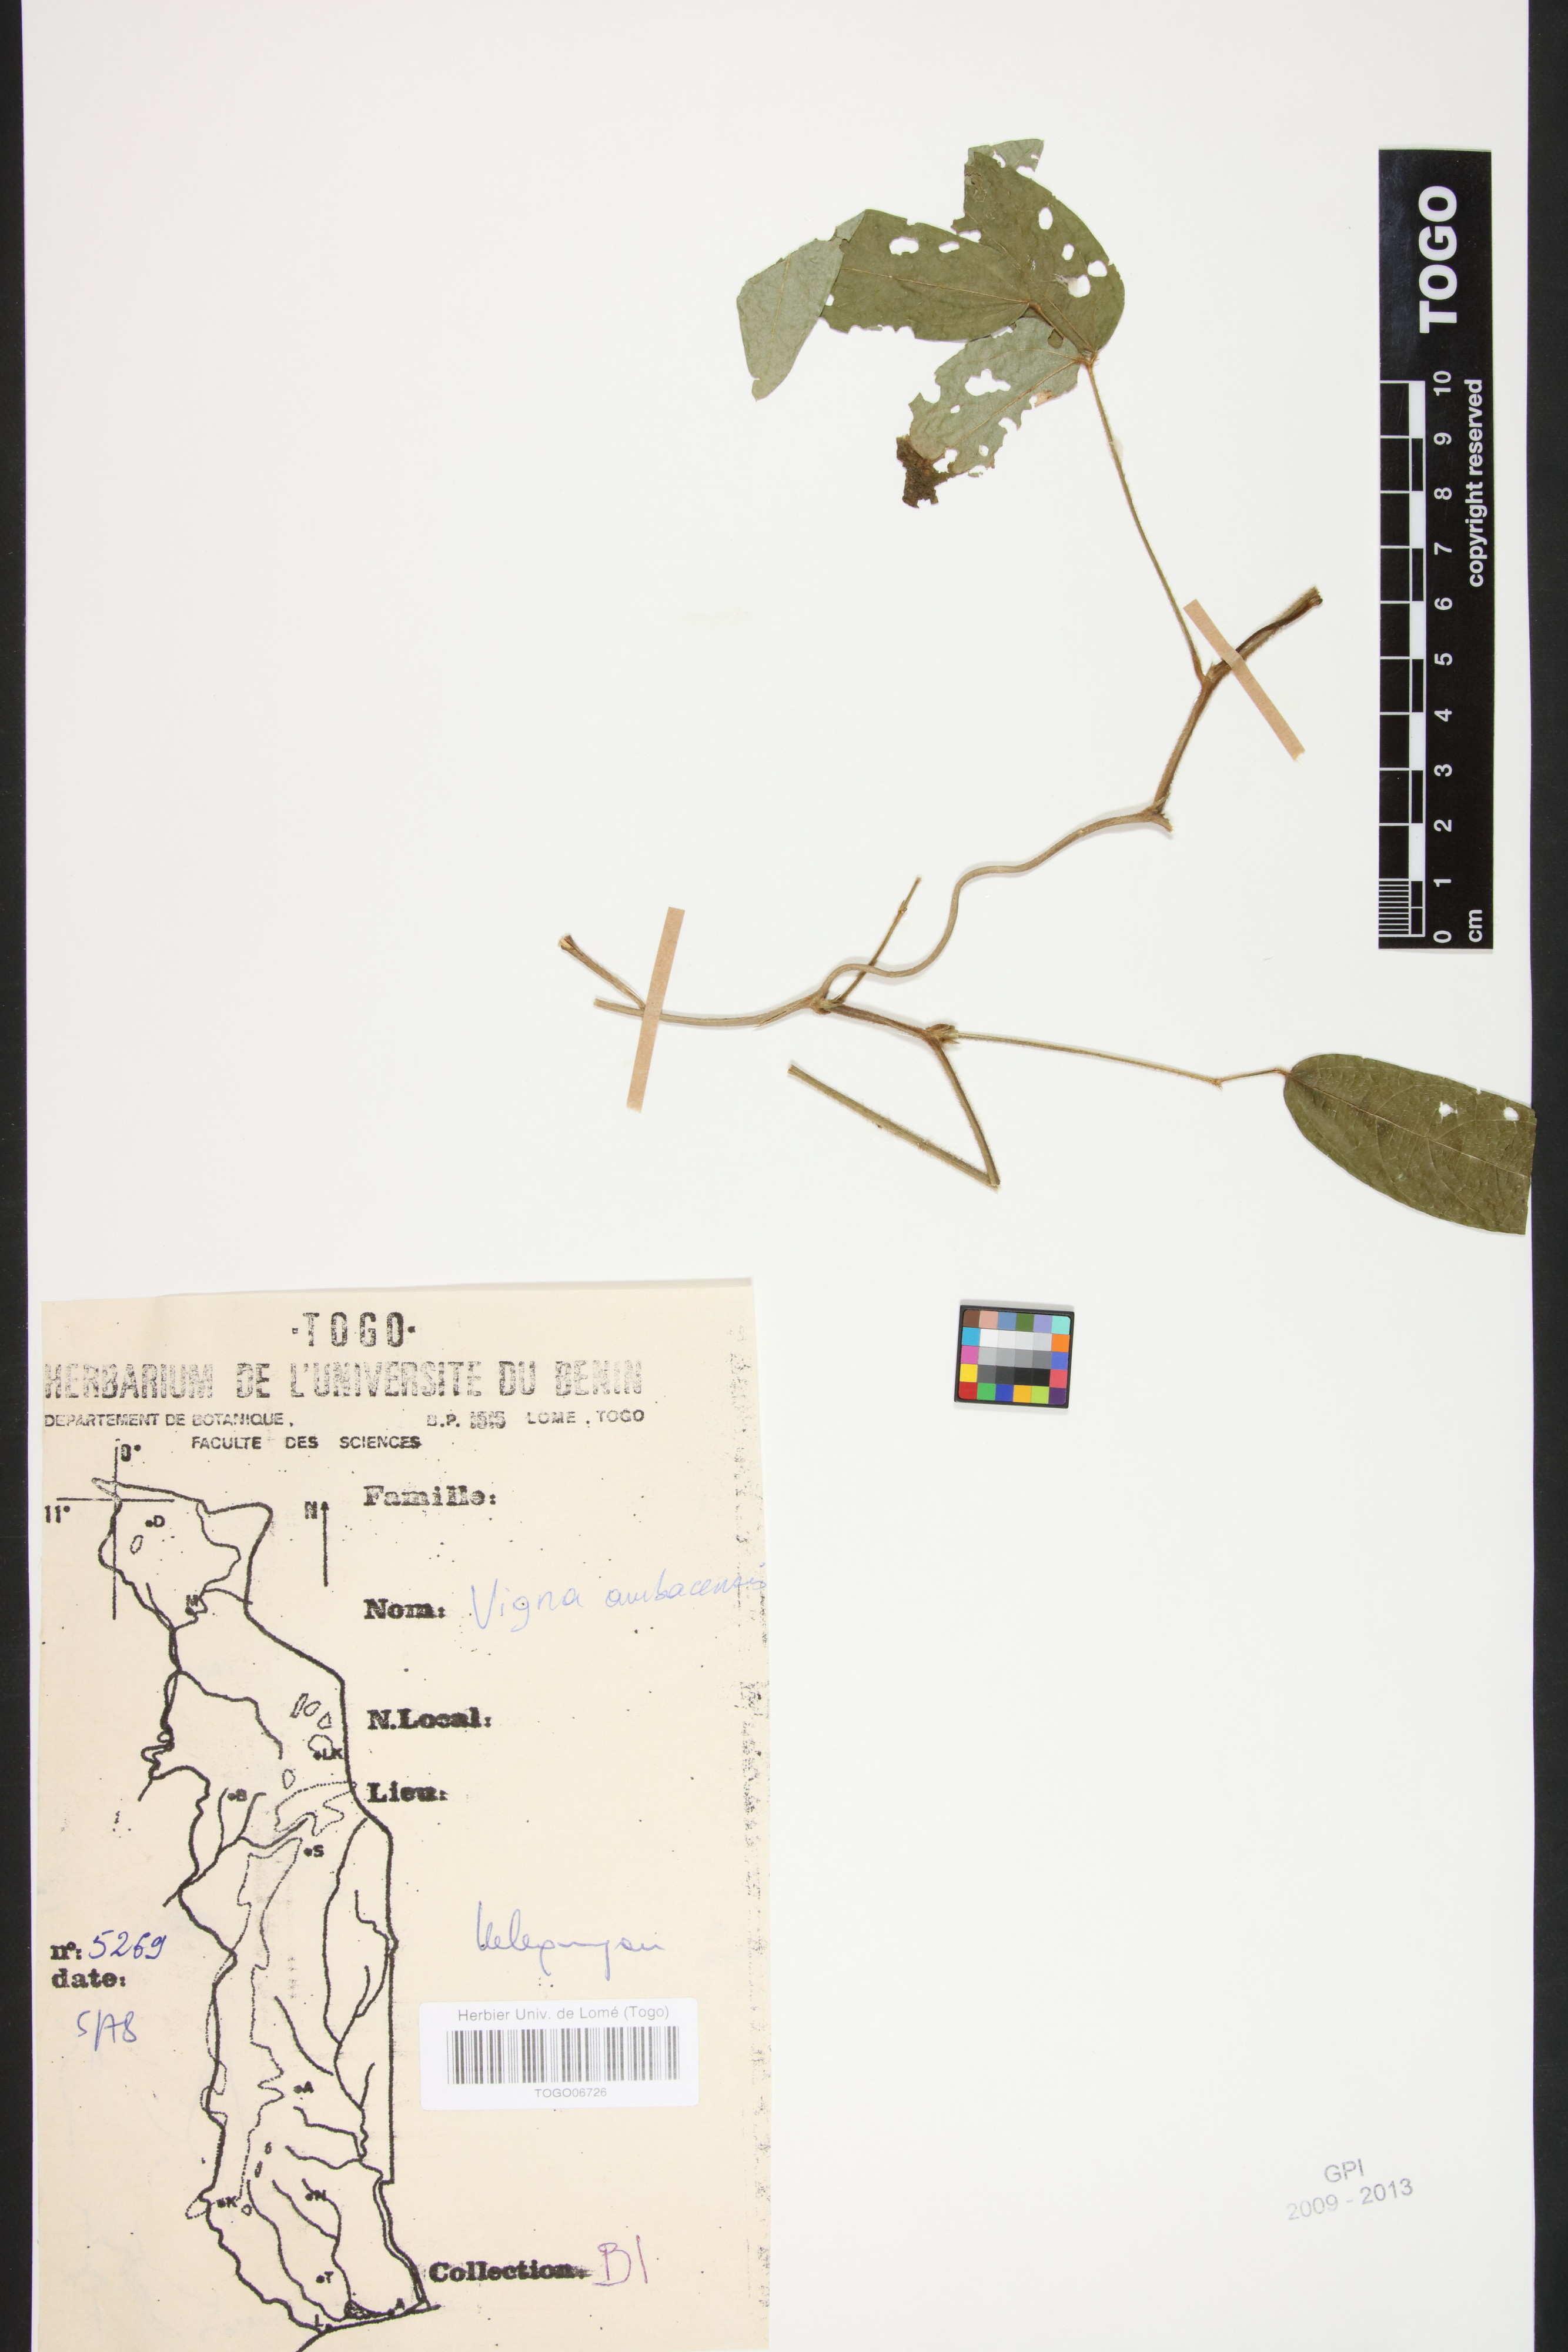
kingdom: Plantae
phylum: Tracheophyta
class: Magnoliopsida
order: Fabales
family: Fabaceae
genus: Vigna
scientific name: Vigna ambacensis
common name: Tsarkiyan zomo
